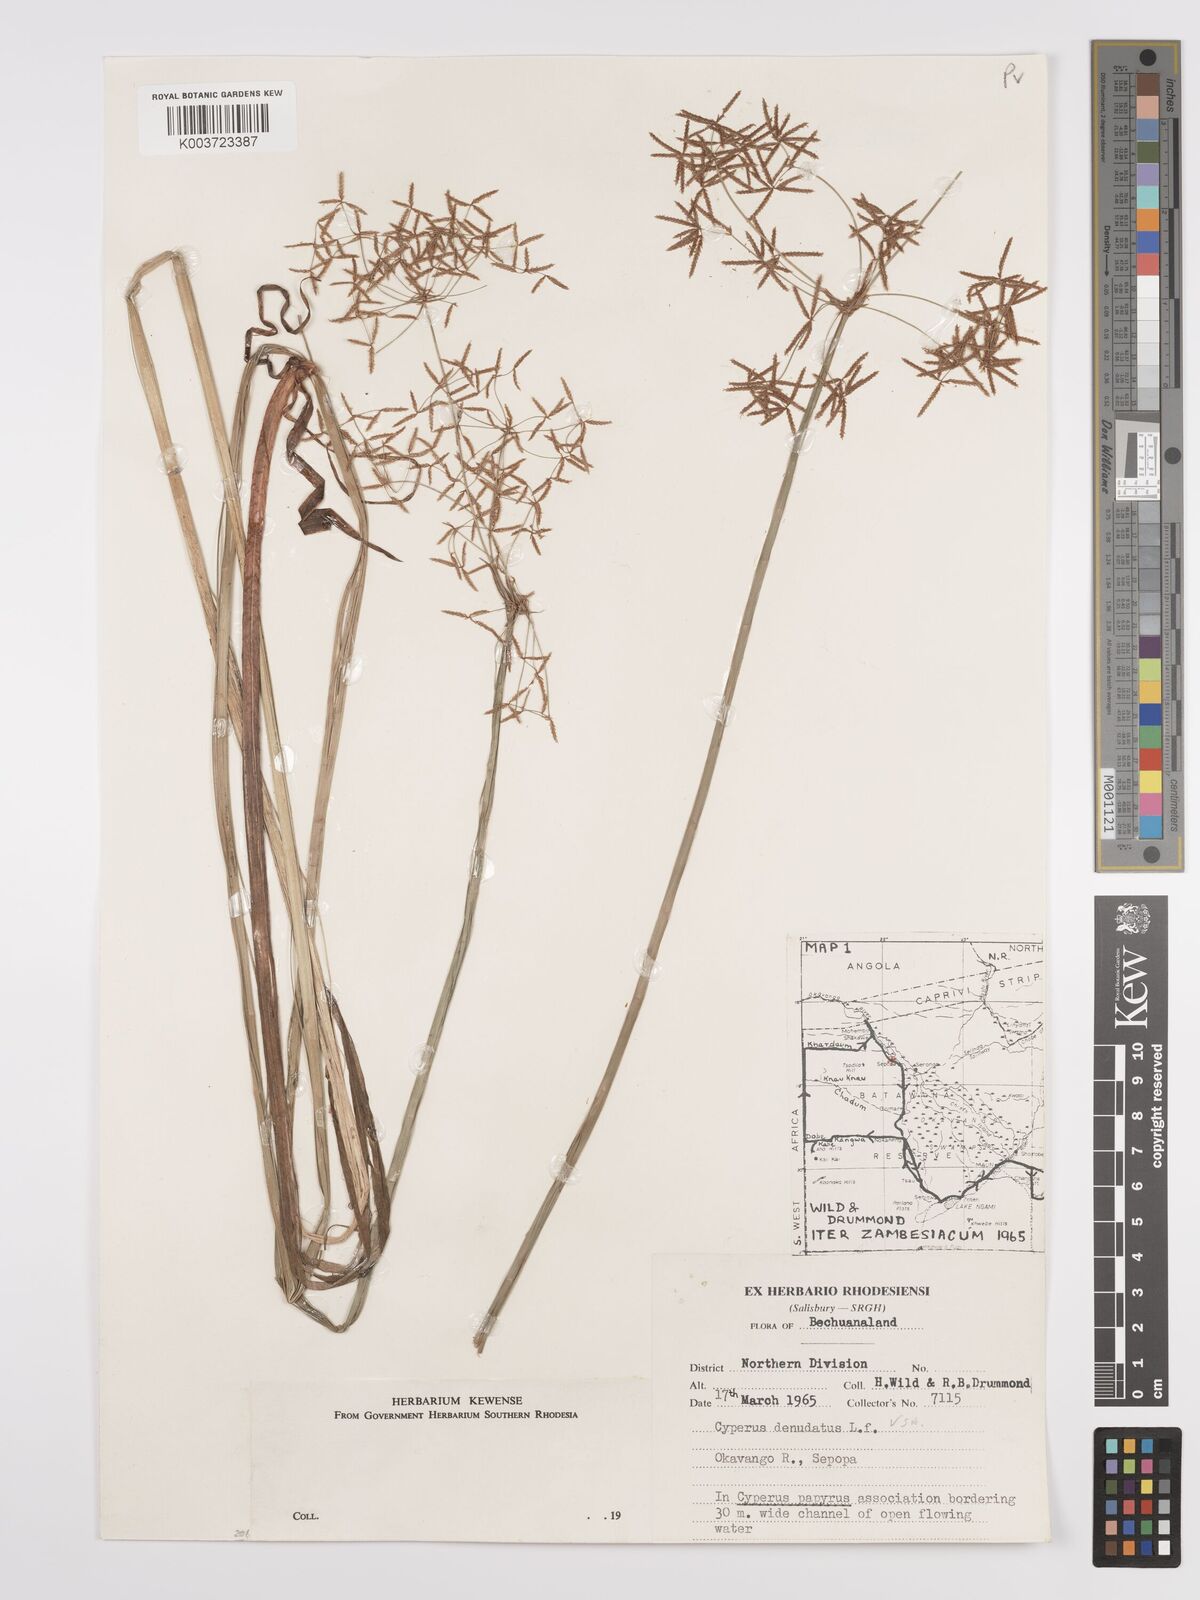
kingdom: Plantae
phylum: Tracheophyta
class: Liliopsida
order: Poales
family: Cyperaceae
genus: Cyperus
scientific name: Cyperus denudatus
